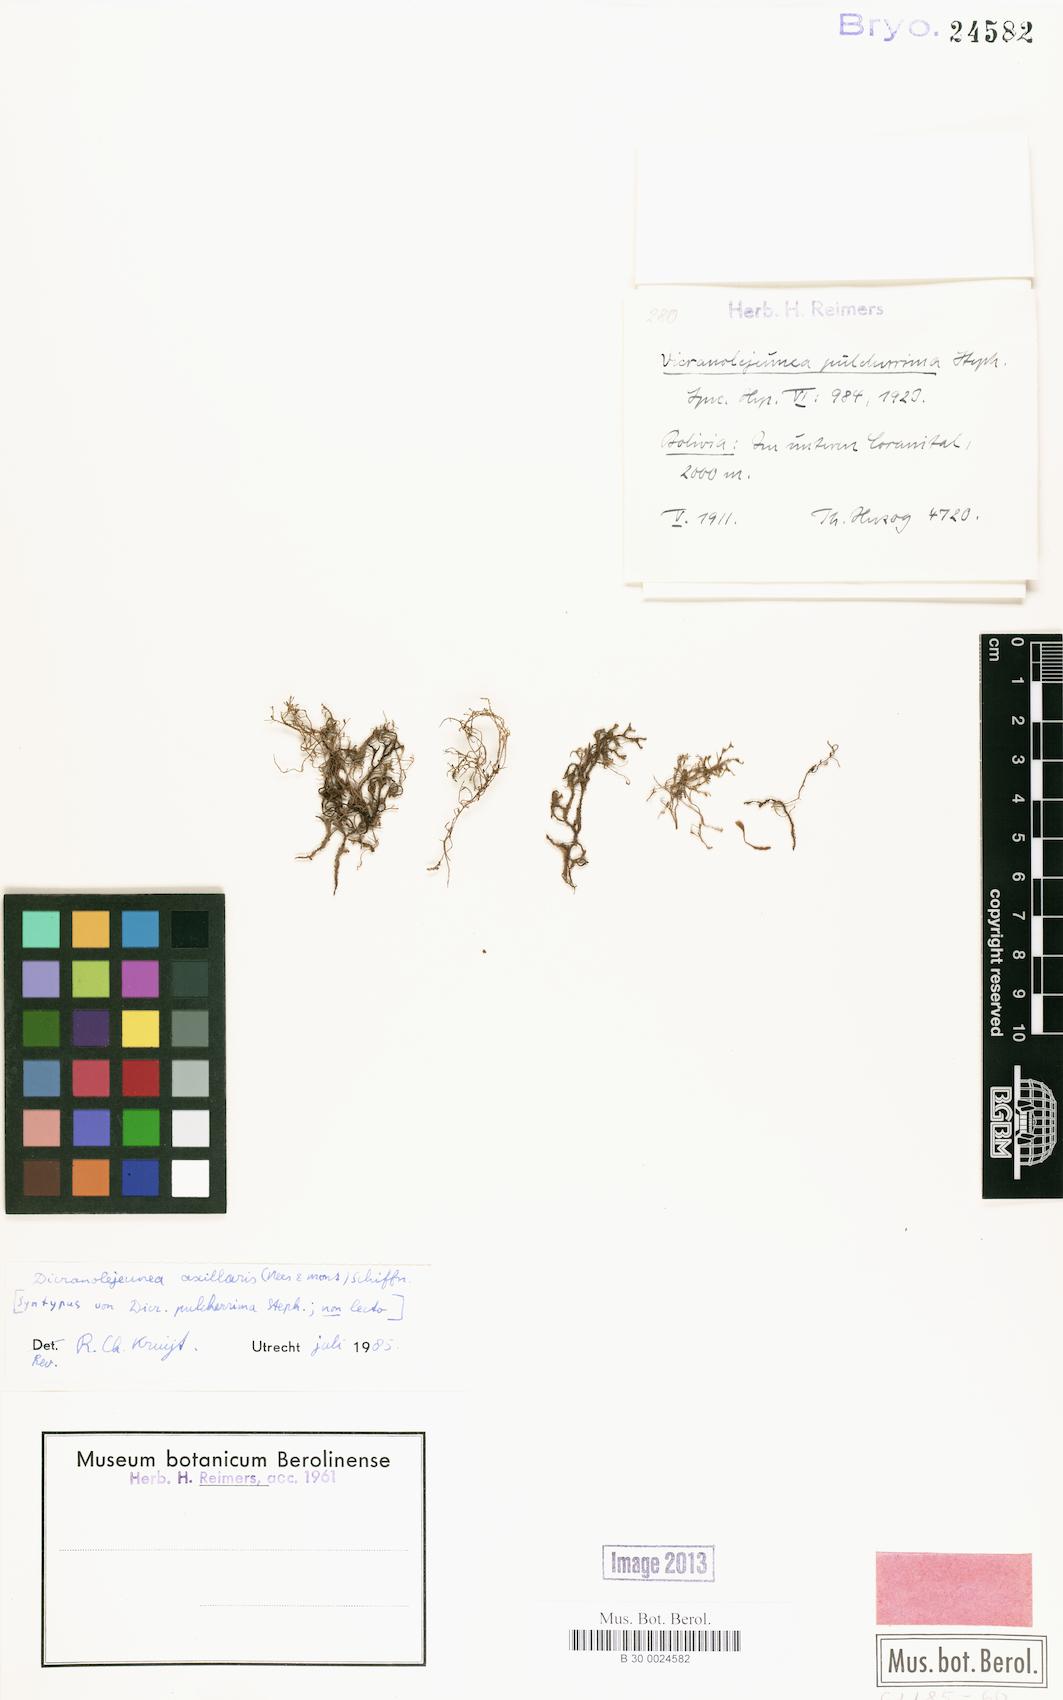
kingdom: Plantae
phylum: Marchantiophyta
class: Jungermanniopsida
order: Porellales
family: Lejeuneaceae
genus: Dicranolejeunea
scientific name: Dicranolejeunea axillaris
